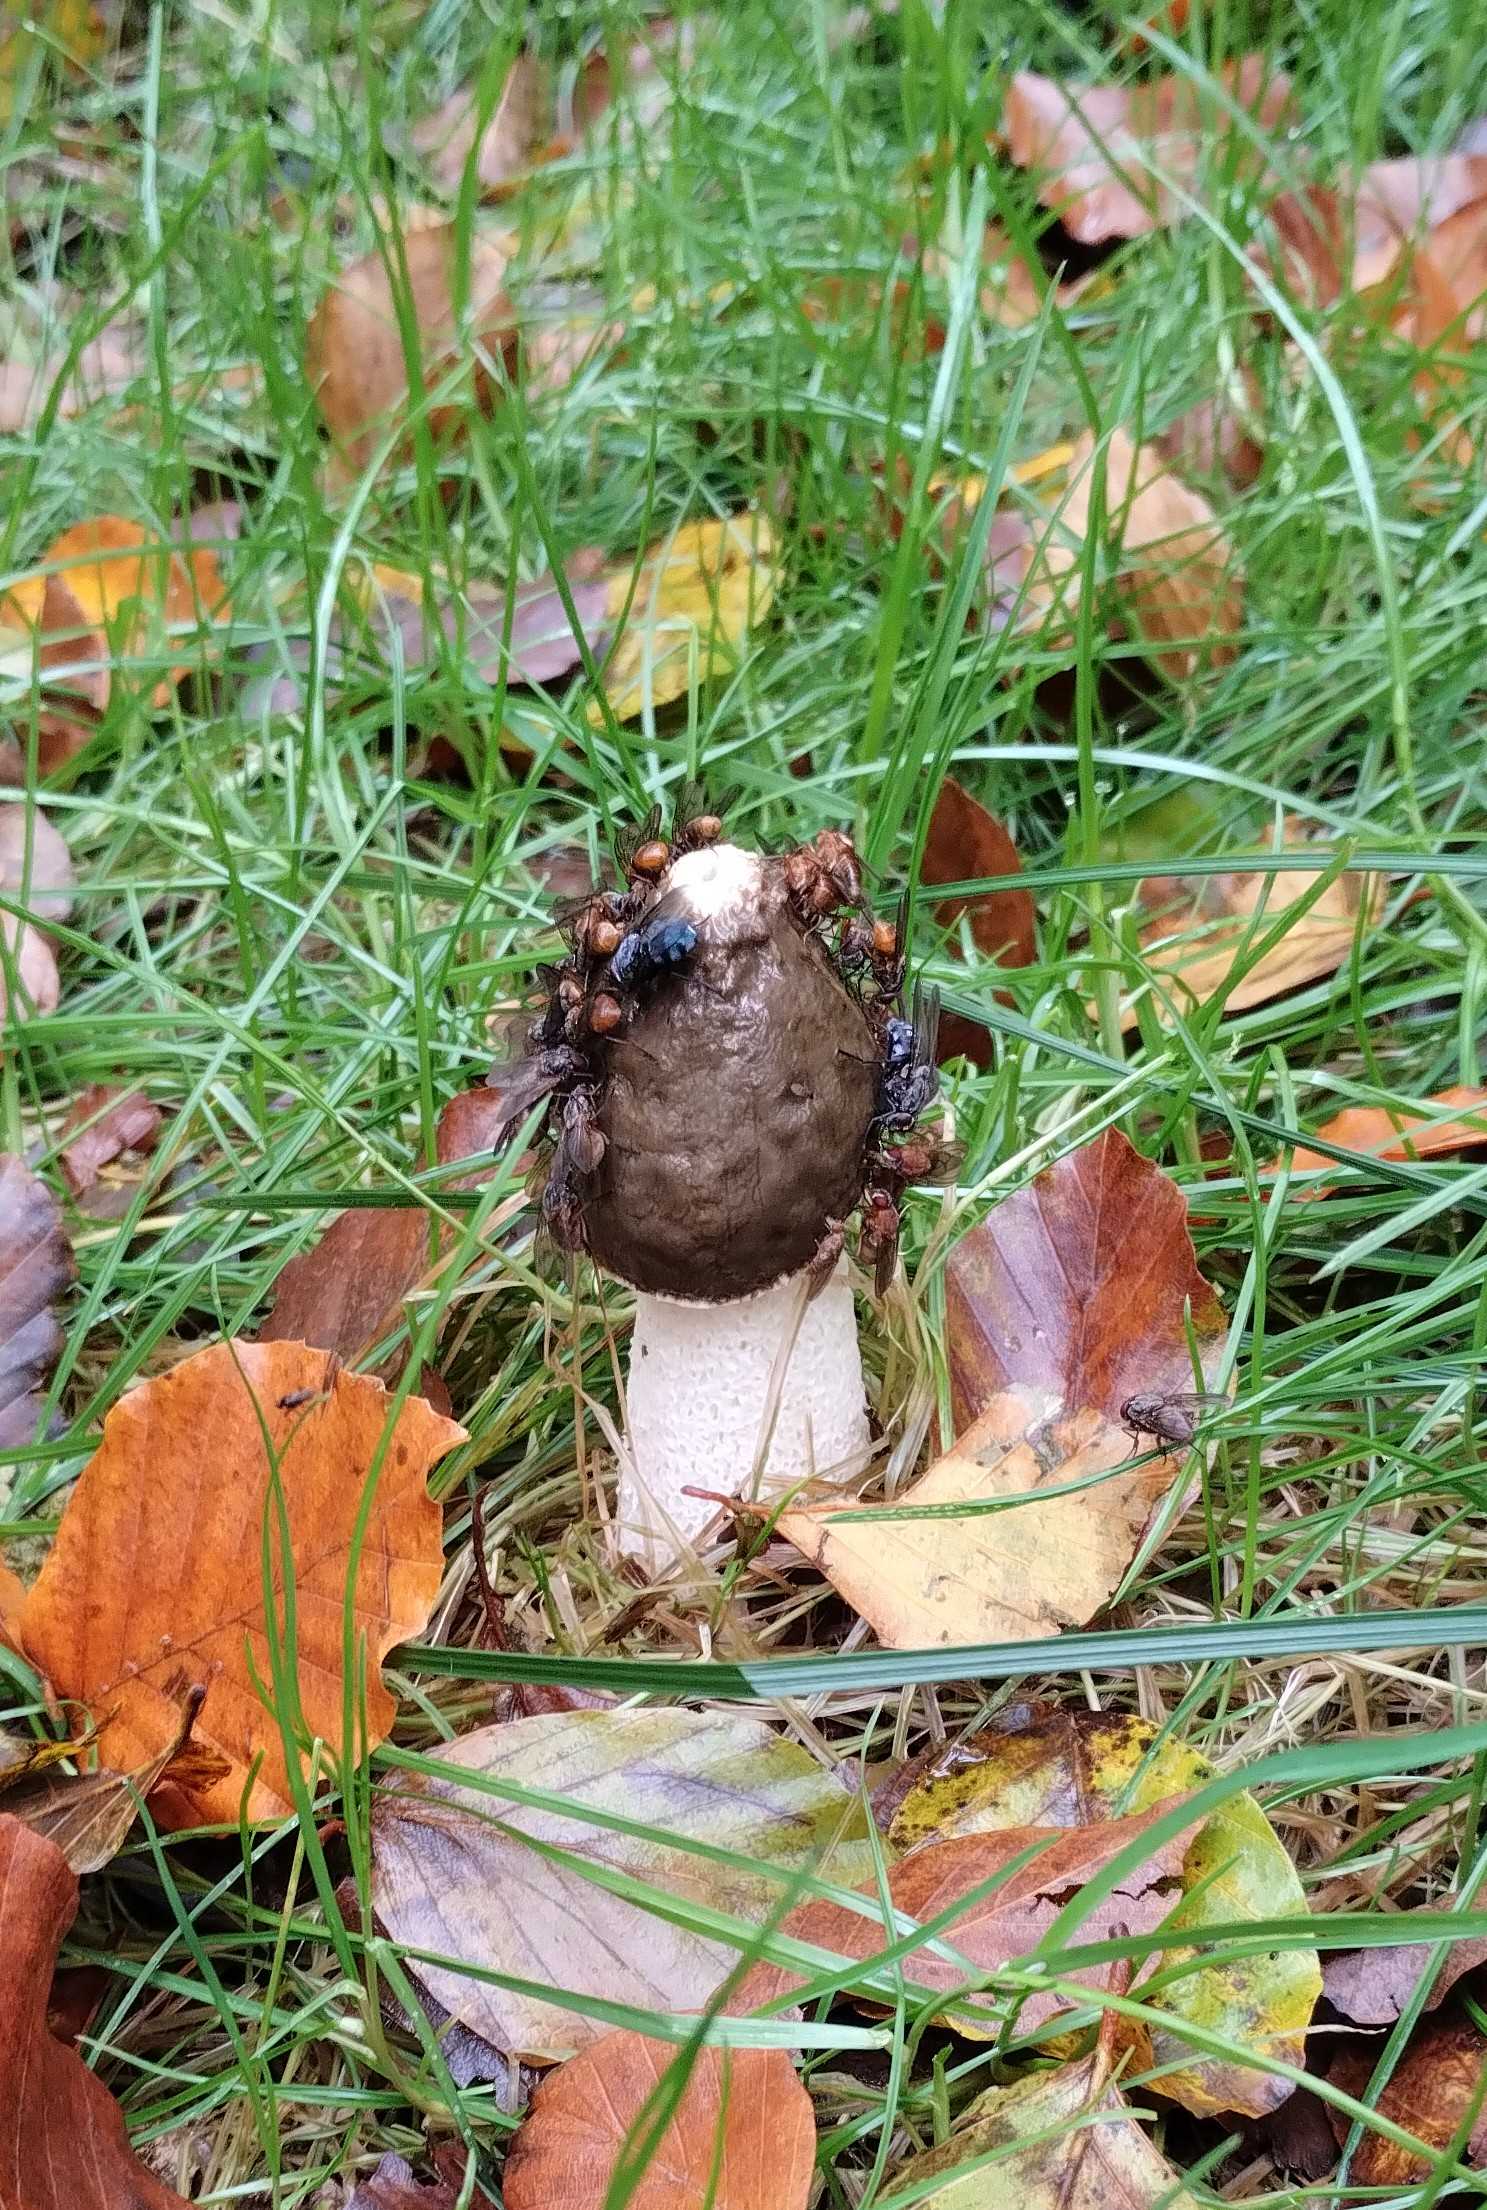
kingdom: Fungi
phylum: Basidiomycota
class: Agaricomycetes
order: Phallales
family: Phallaceae
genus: Phallus
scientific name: Phallus impudicus
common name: almindelig stinksvamp
